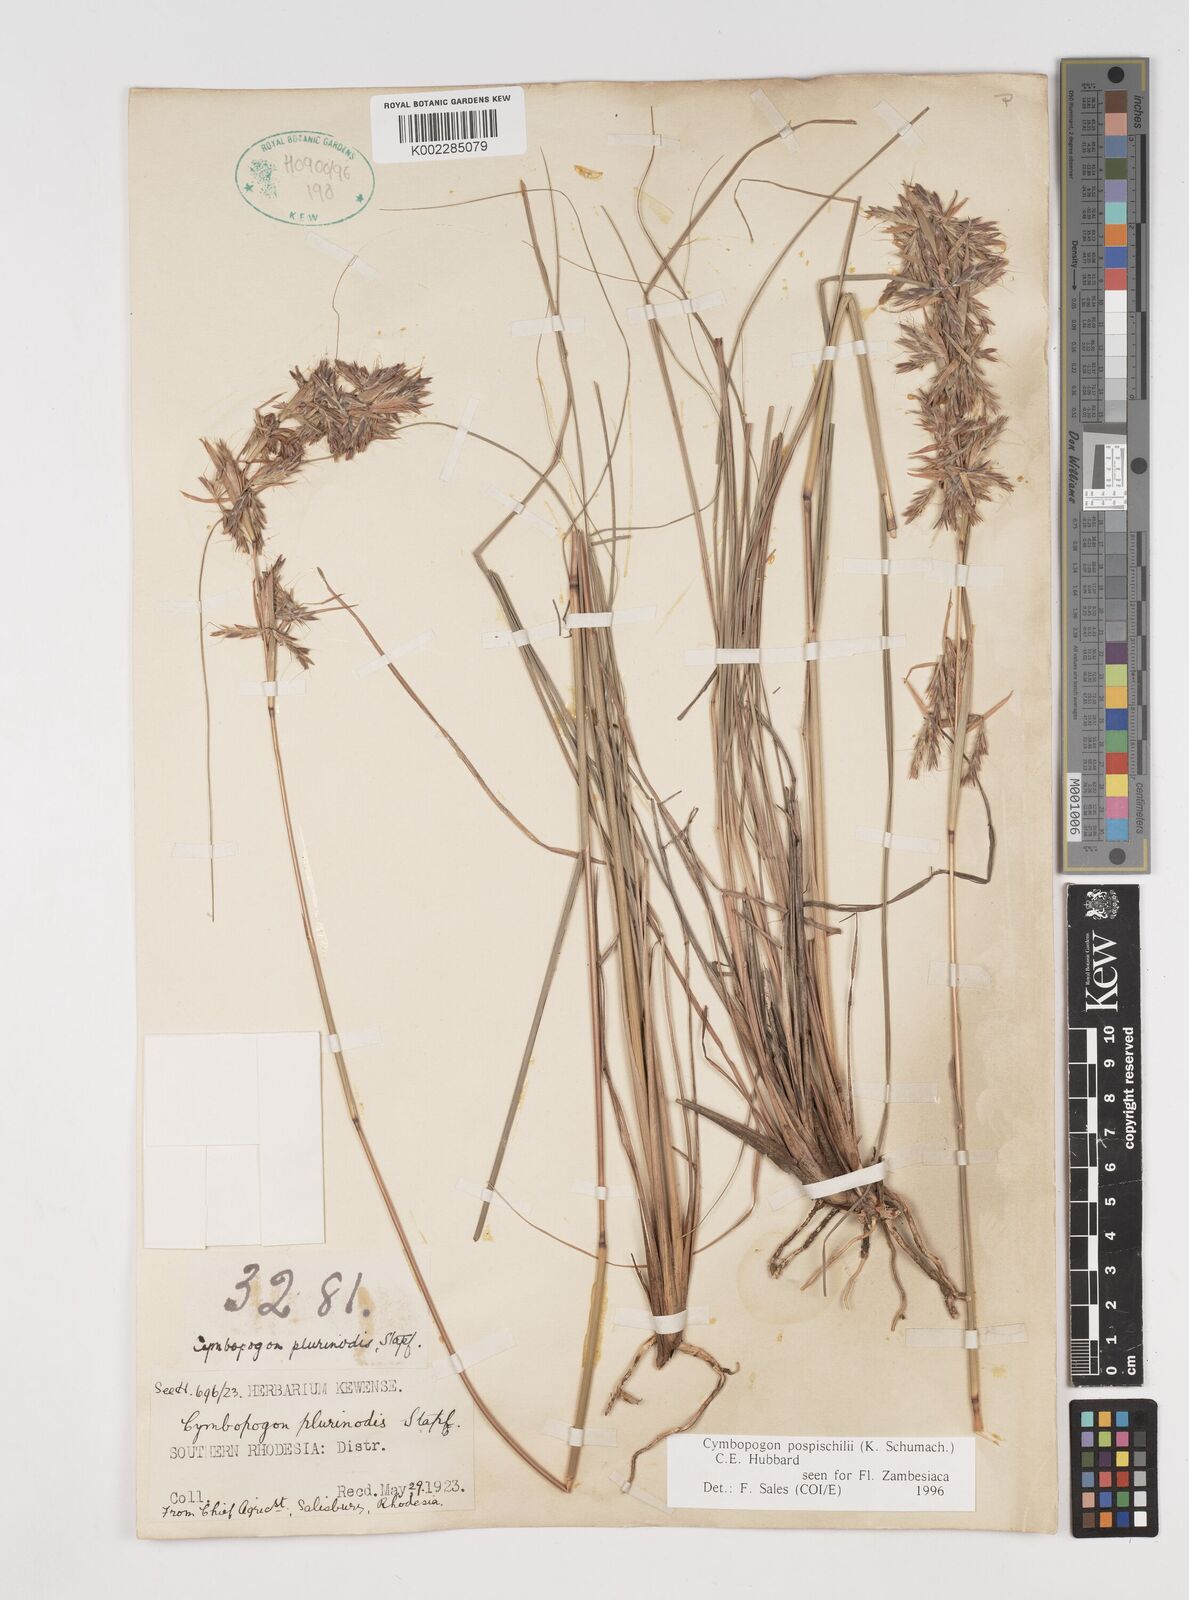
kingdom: Plantae
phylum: Tracheophyta
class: Liliopsida
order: Poales
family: Poaceae
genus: Cymbopogon
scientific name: Cymbopogon pospischilii
